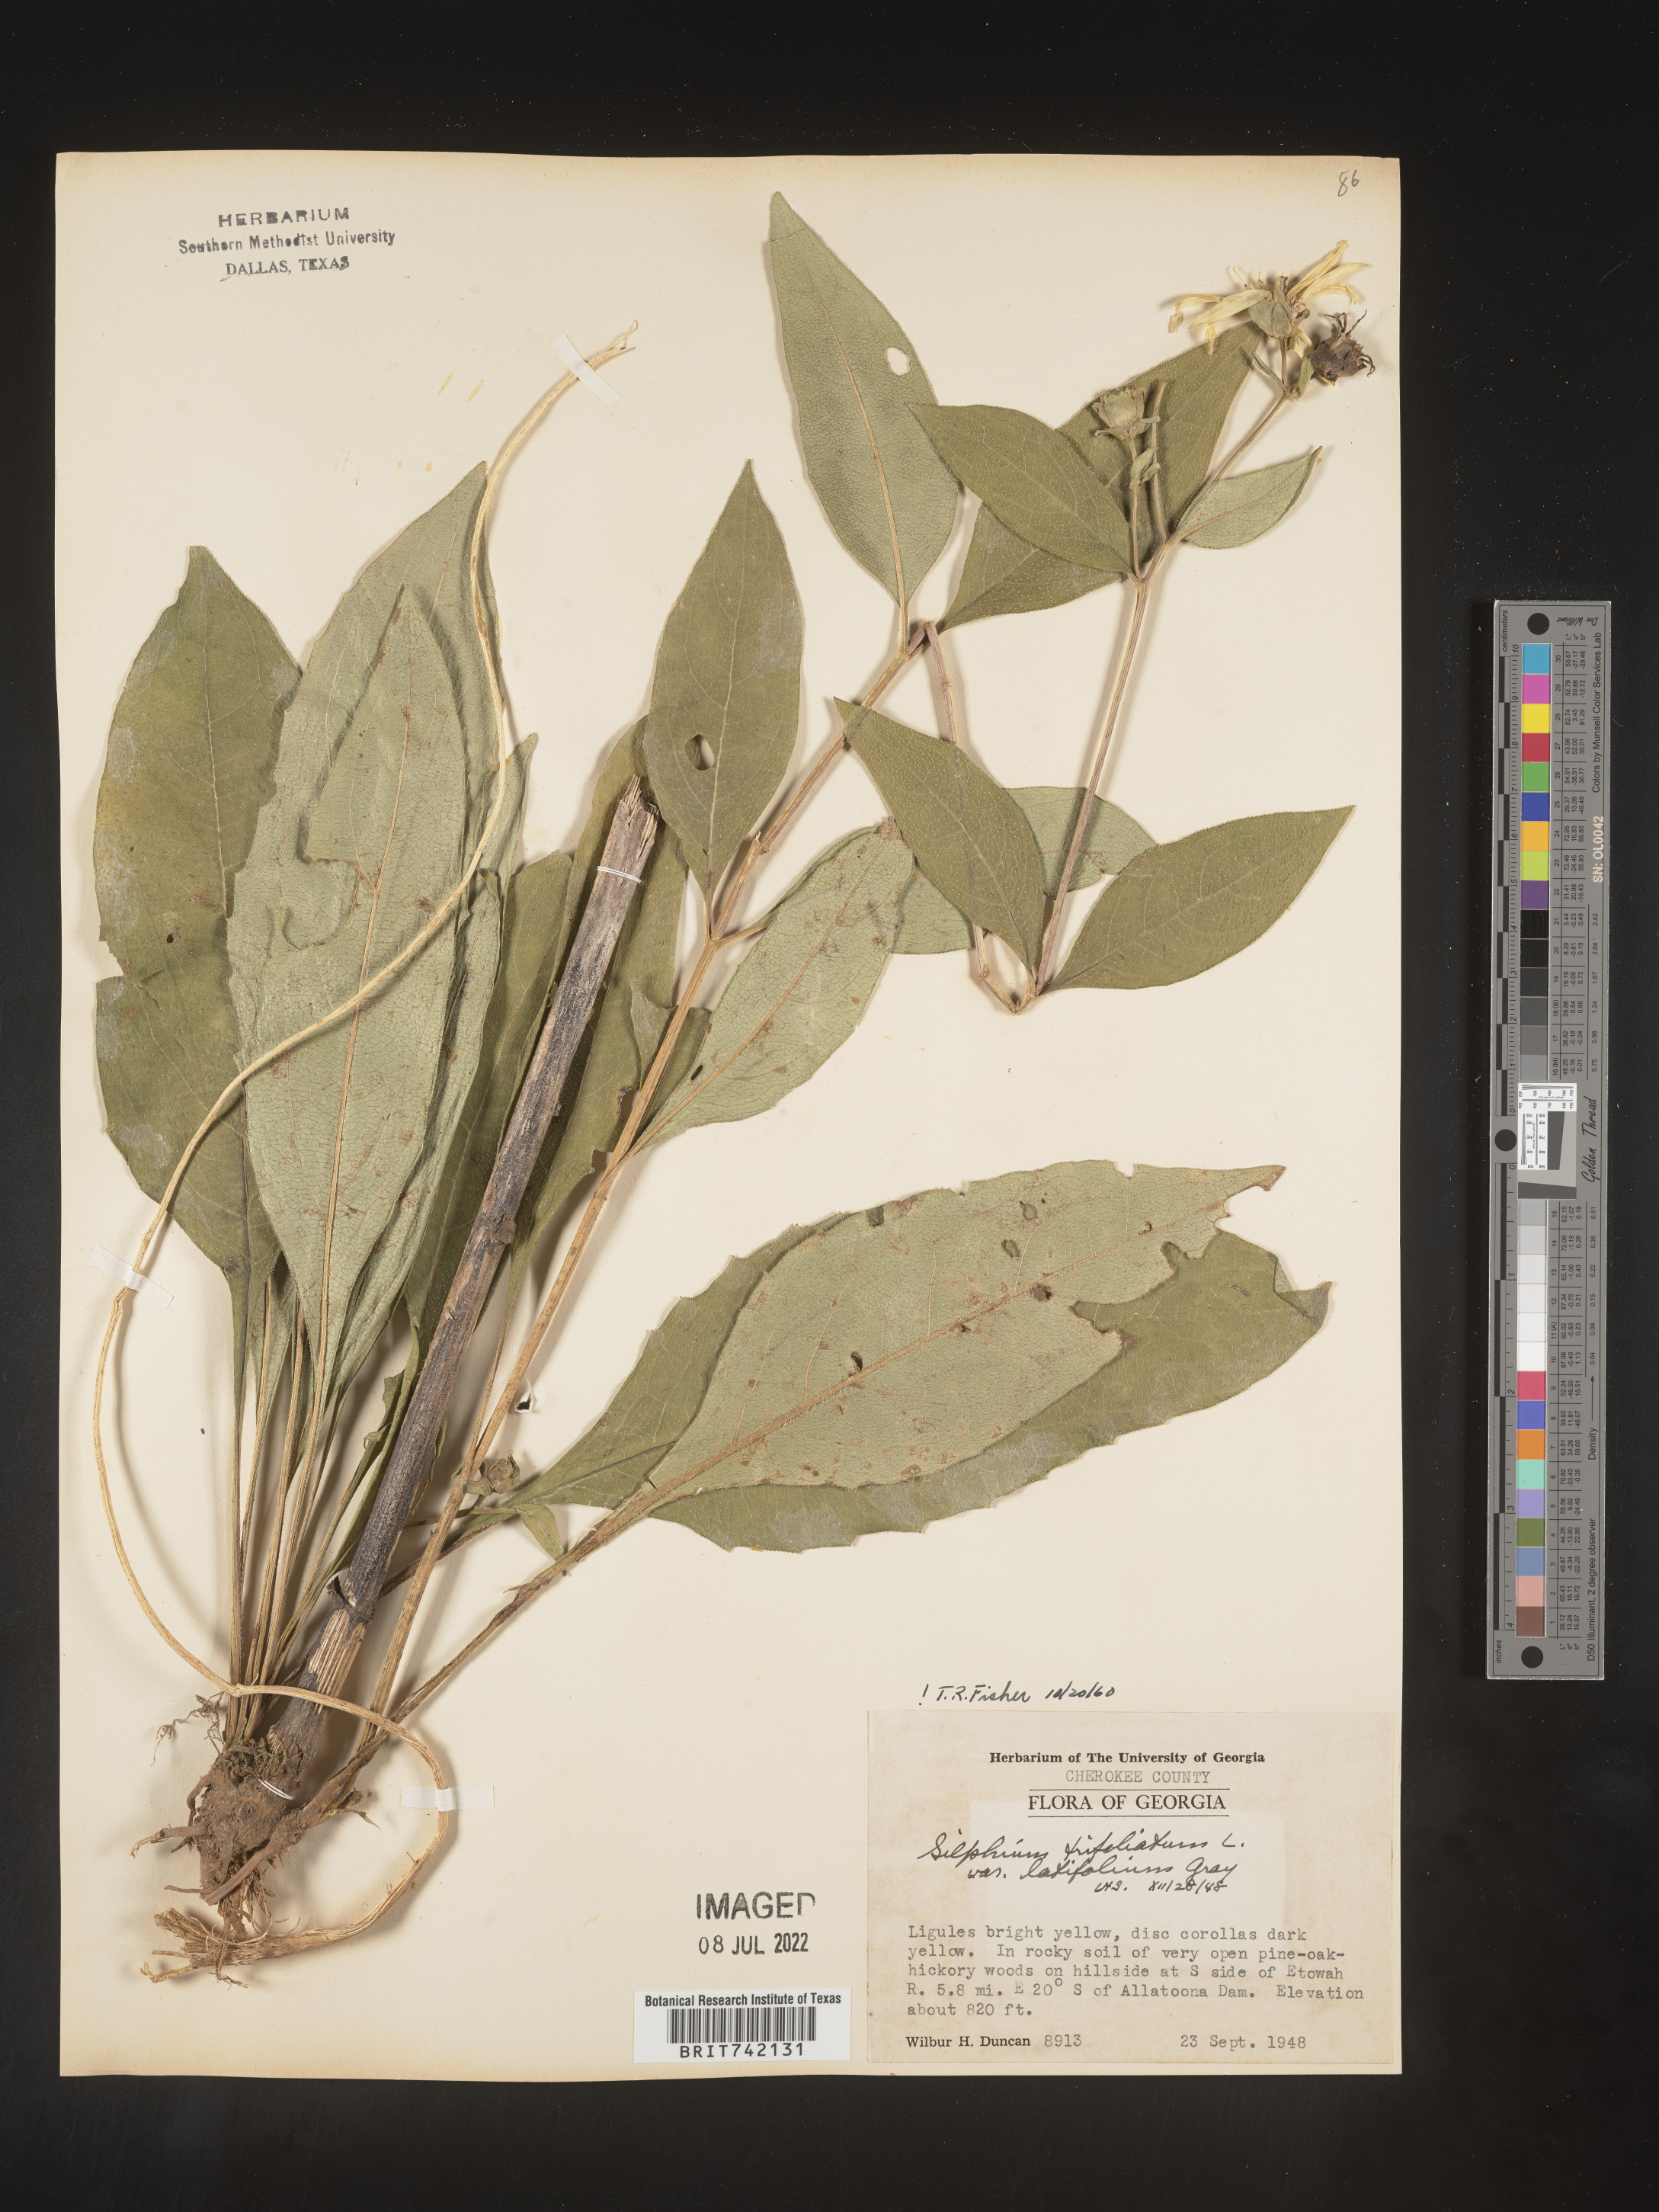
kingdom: Plantae
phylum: Tracheophyta
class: Magnoliopsida
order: Asterales
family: Asteraceae
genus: Silphium
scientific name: Silphium glabrum
